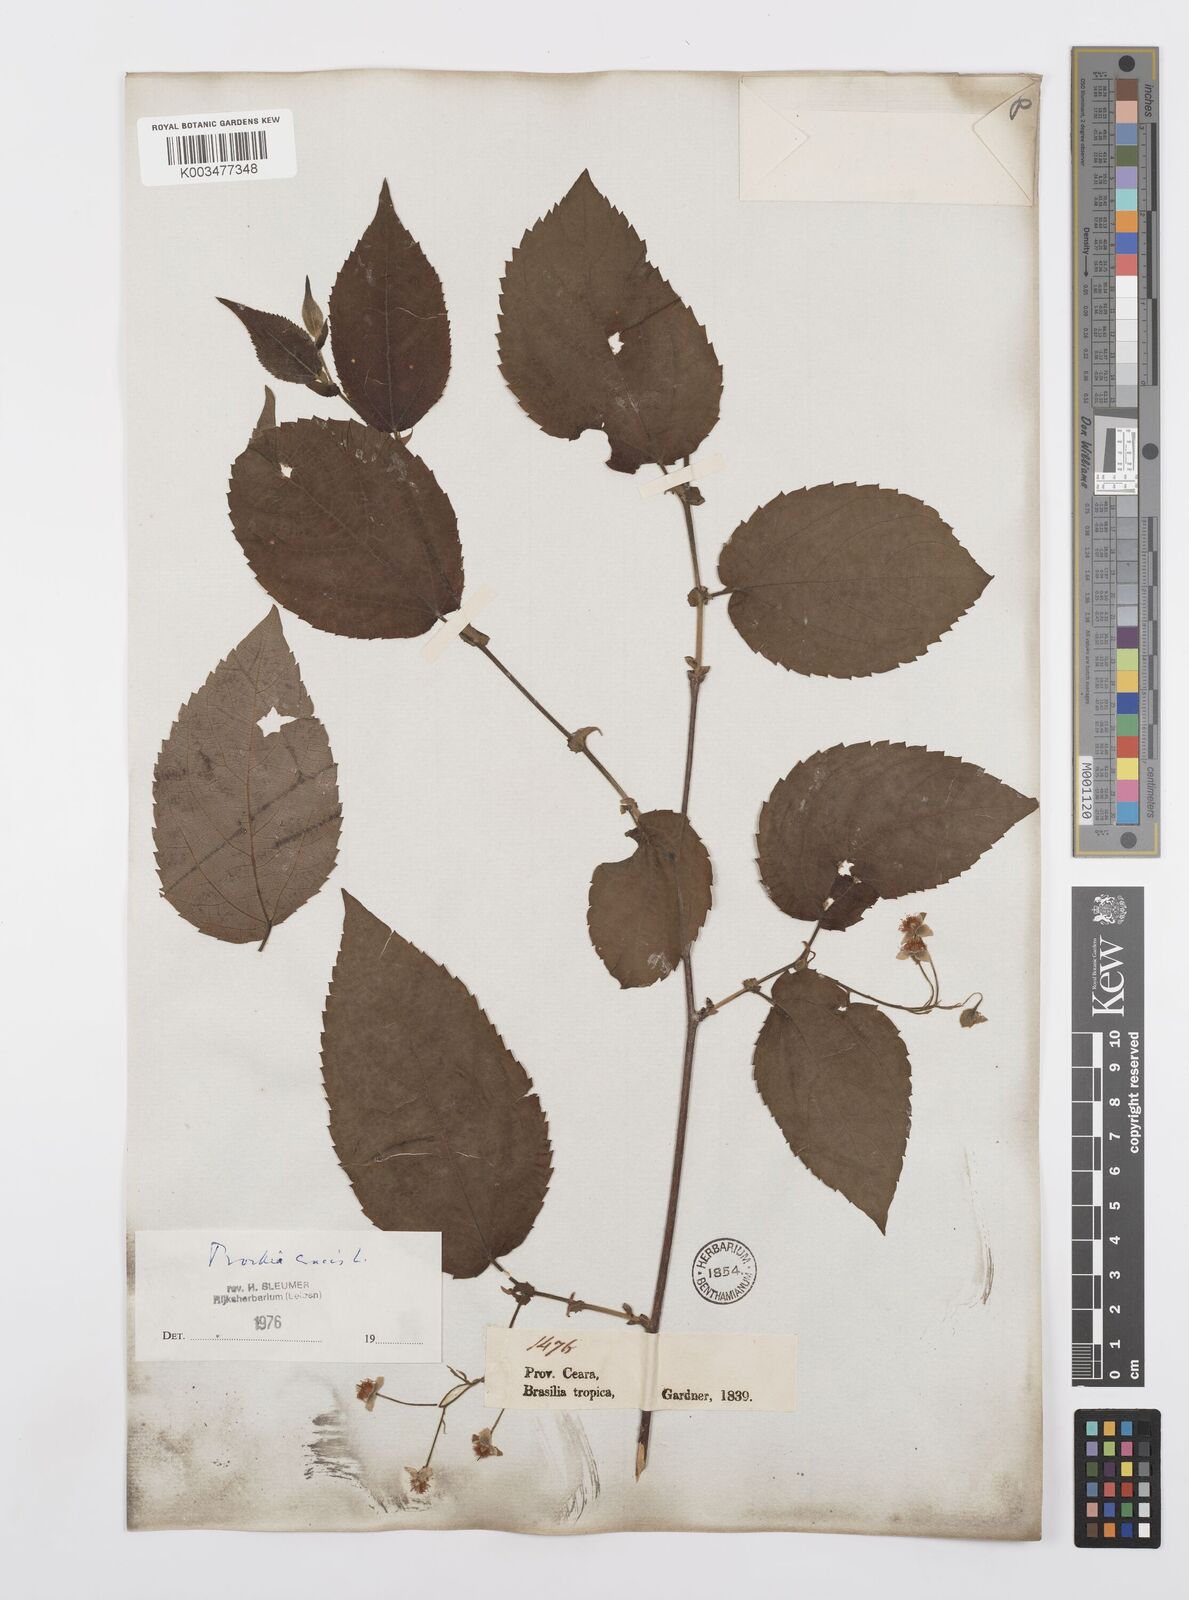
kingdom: Plantae
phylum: Tracheophyta
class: Magnoliopsida
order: Malpighiales
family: Salicaceae
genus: Prockia
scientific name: Prockia crucis
